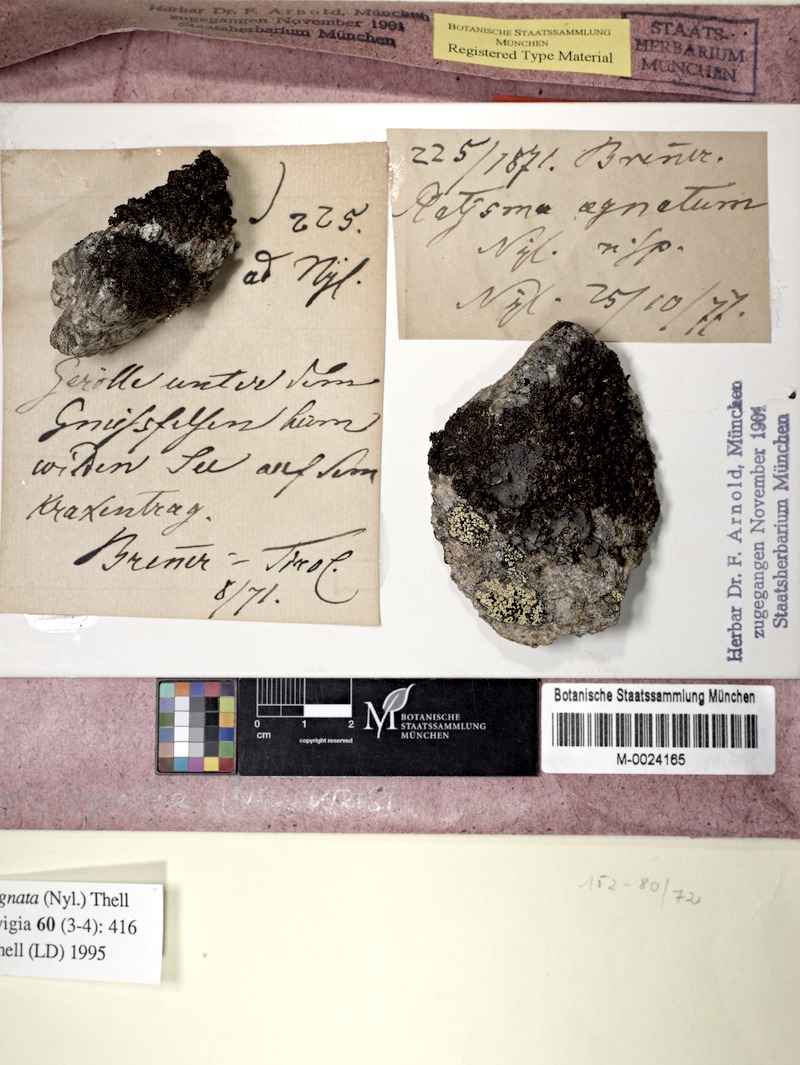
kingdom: Fungi
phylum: Ascomycota
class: Lecanoromycetes
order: Lecanorales
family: Parmeliaceae
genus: Melanelia
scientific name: Melanelia agnata
